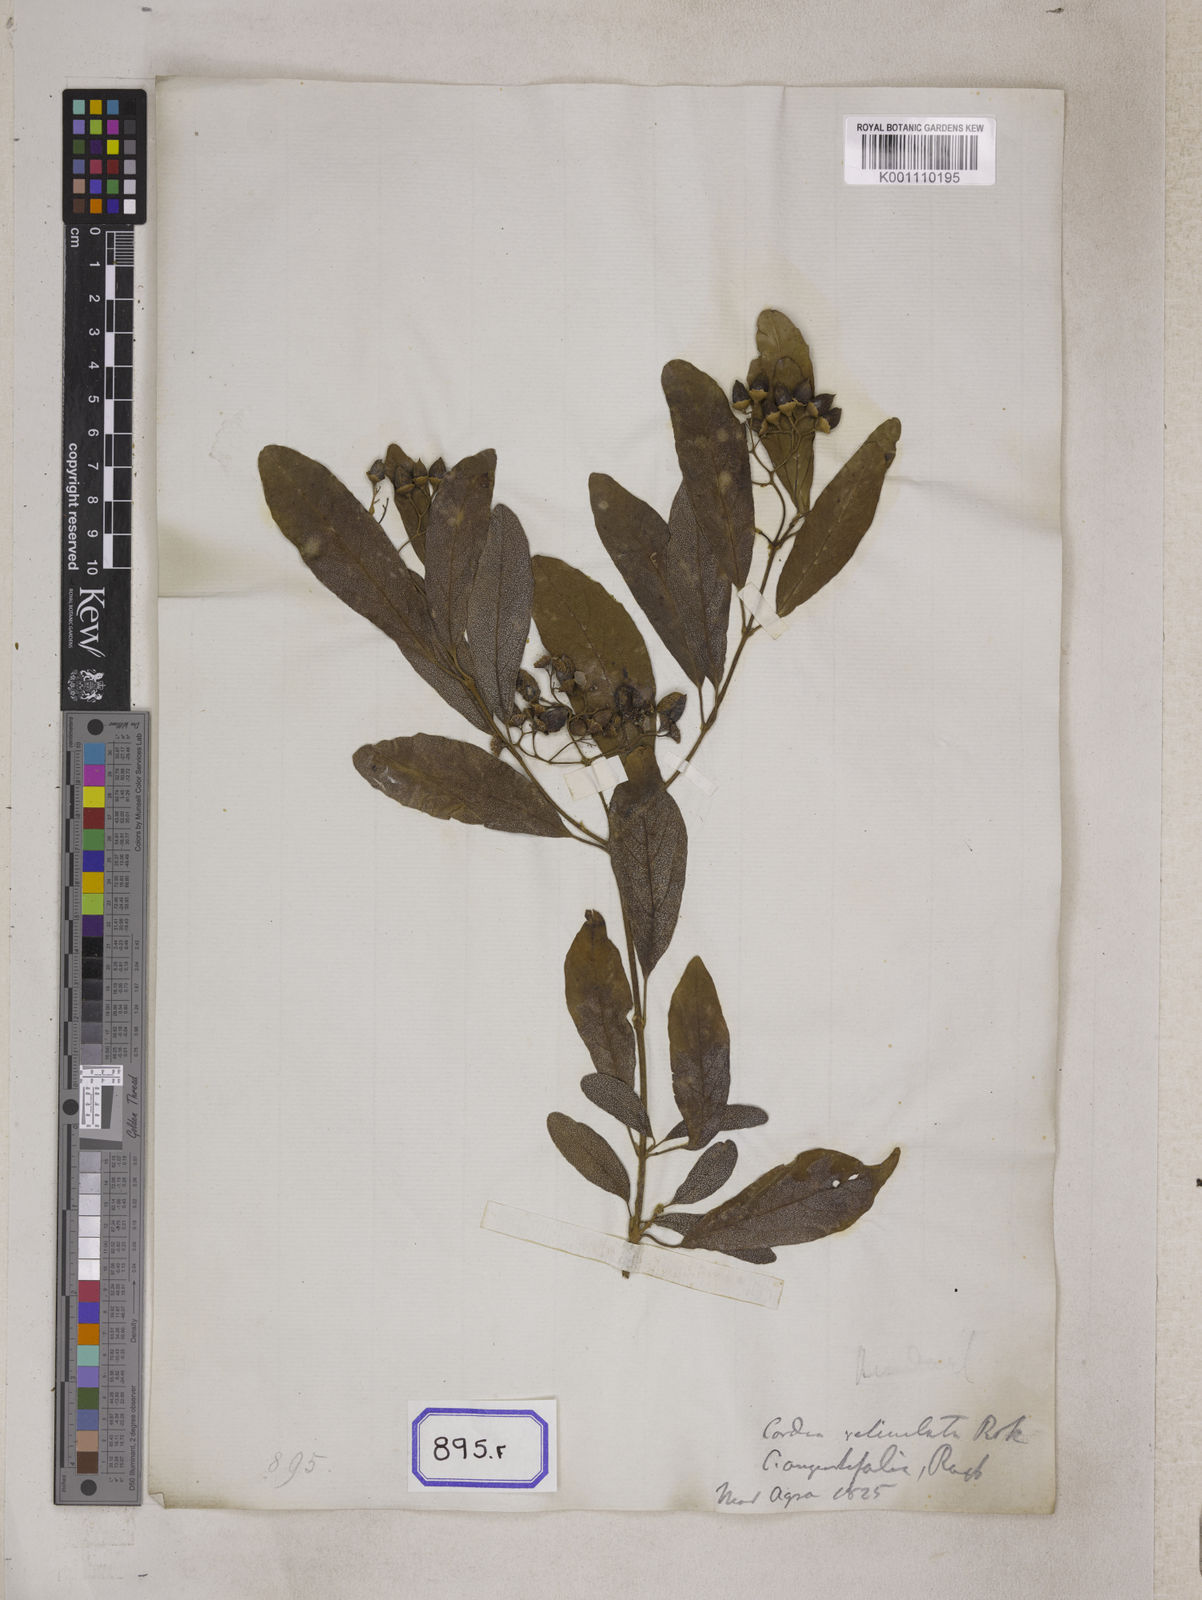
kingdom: Plantae
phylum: Tracheophyta
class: Magnoliopsida
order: Boraginales
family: Cordiaceae
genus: Cordia
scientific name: Cordia sinensis
